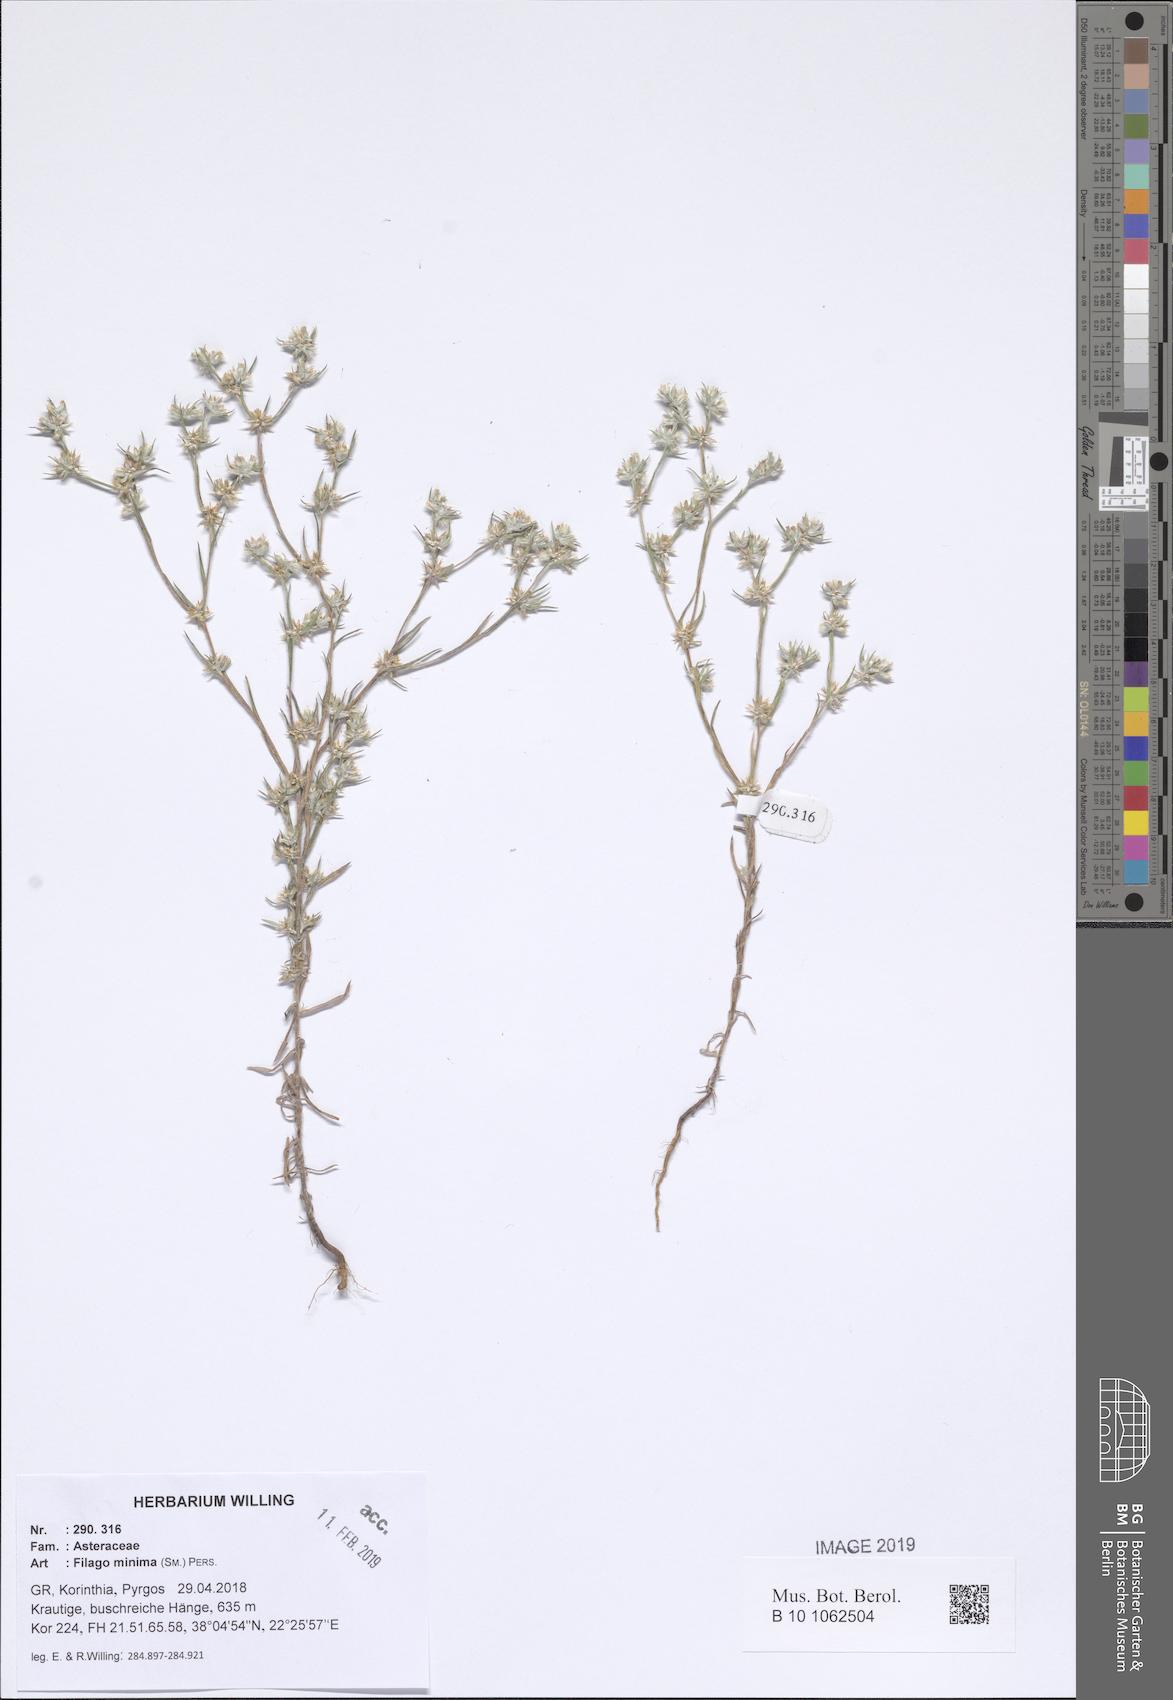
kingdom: Plantae
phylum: Tracheophyta
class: Magnoliopsida
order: Asterales
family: Asteraceae
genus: Logfia
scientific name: Logfia minima
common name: Little cottonrose
